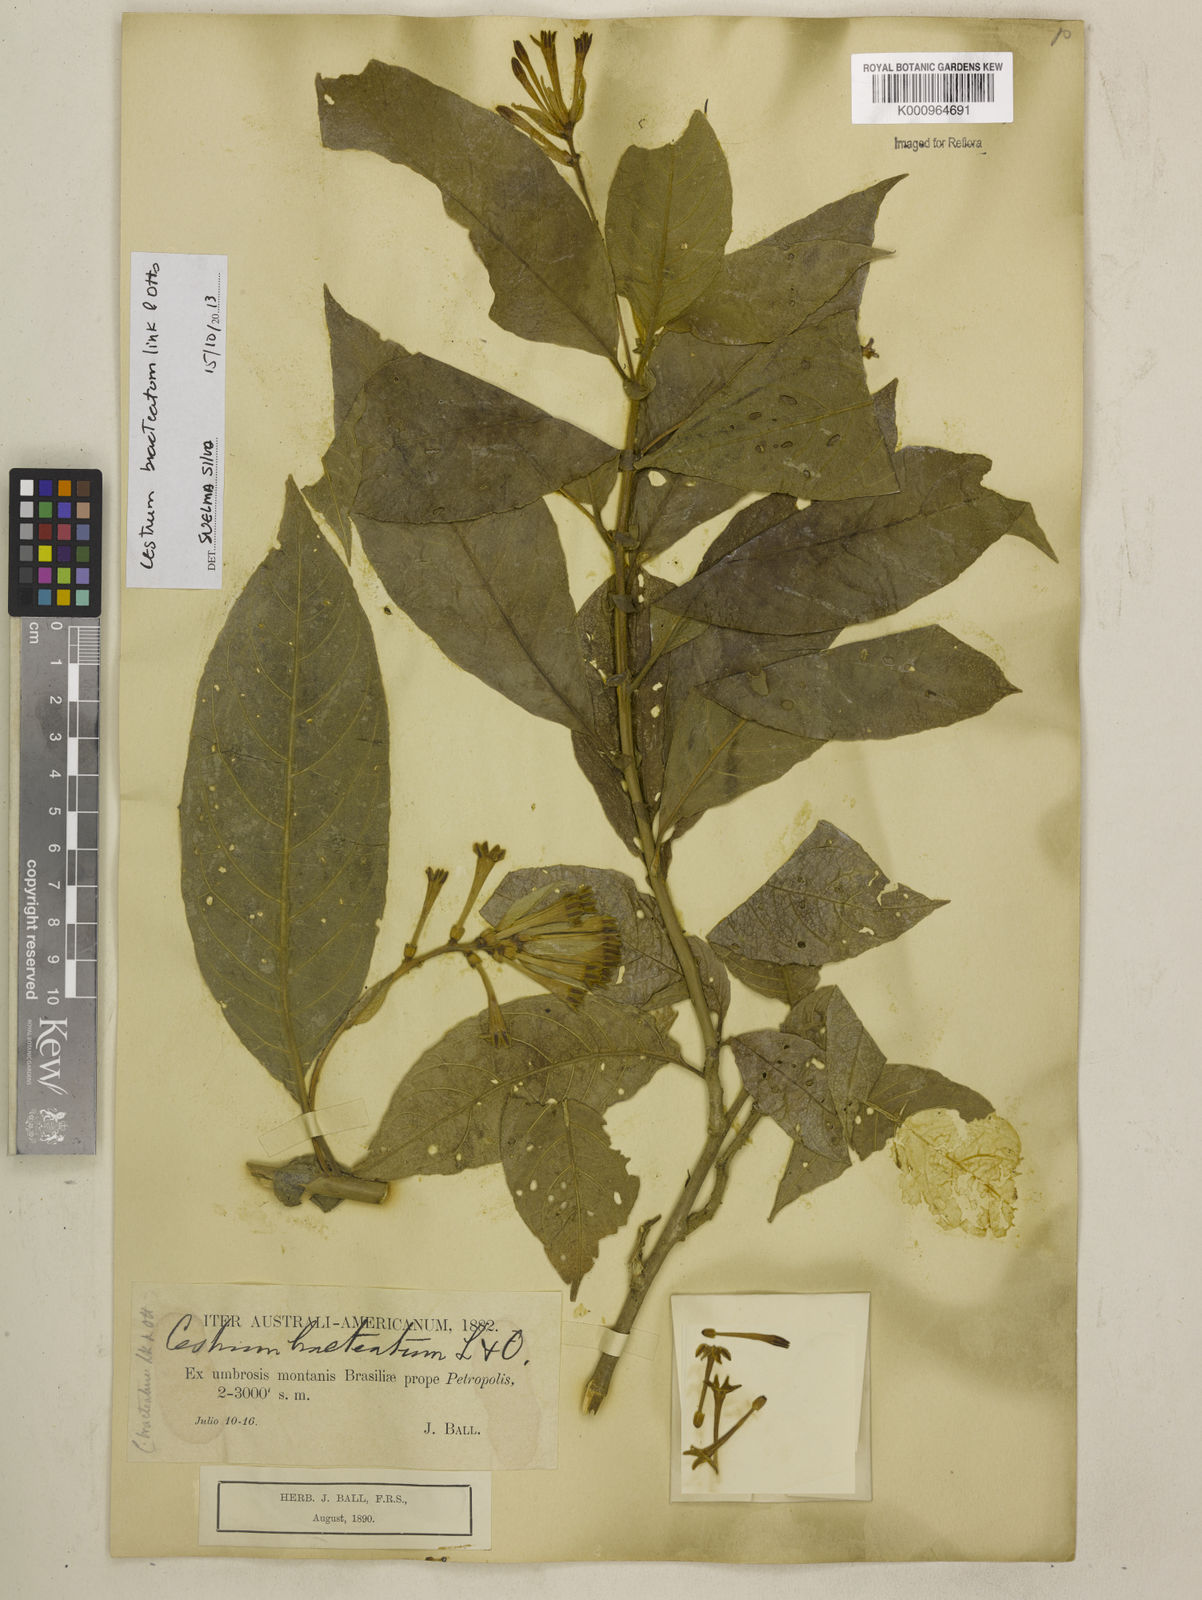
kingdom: Plantae
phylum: Tracheophyta
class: Magnoliopsida
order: Solanales
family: Solanaceae
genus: Cestrum
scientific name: Cestrum bracteatum
